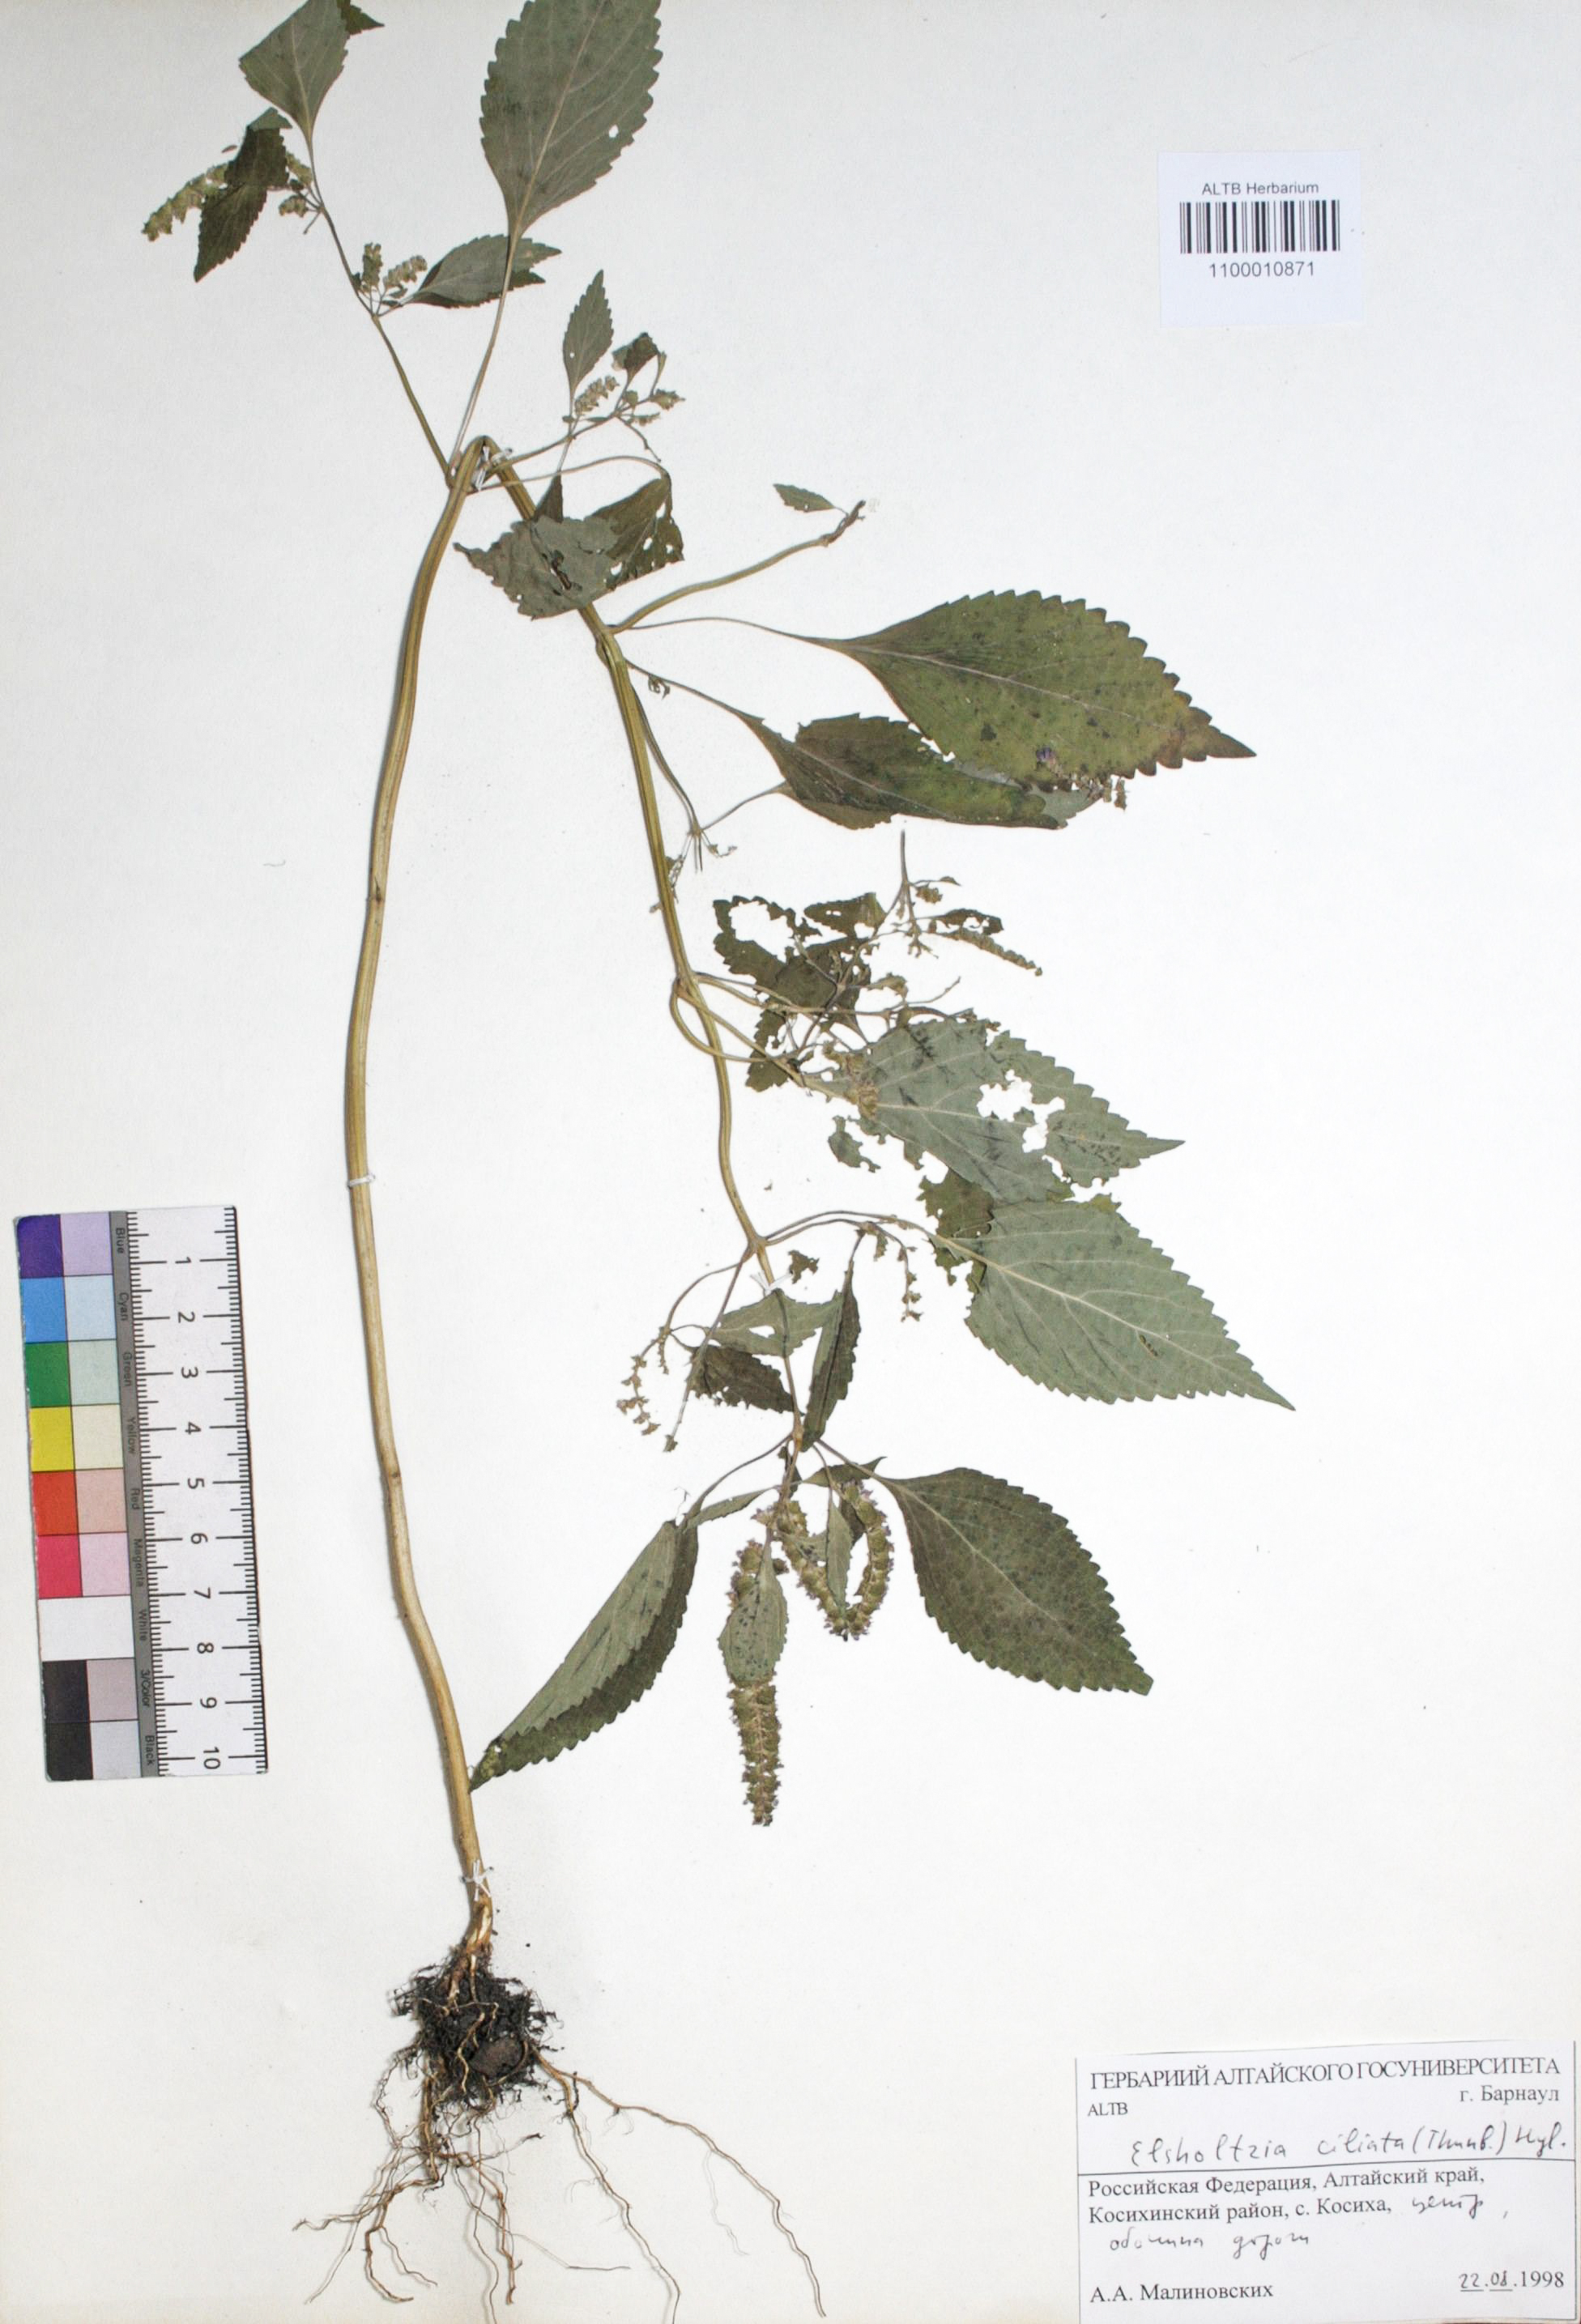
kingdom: Plantae
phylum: Tracheophyta
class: Magnoliopsida
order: Lamiales
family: Lamiaceae
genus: Elsholtzia
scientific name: Elsholtzia ciliata
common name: Ciliate elsholtzia
